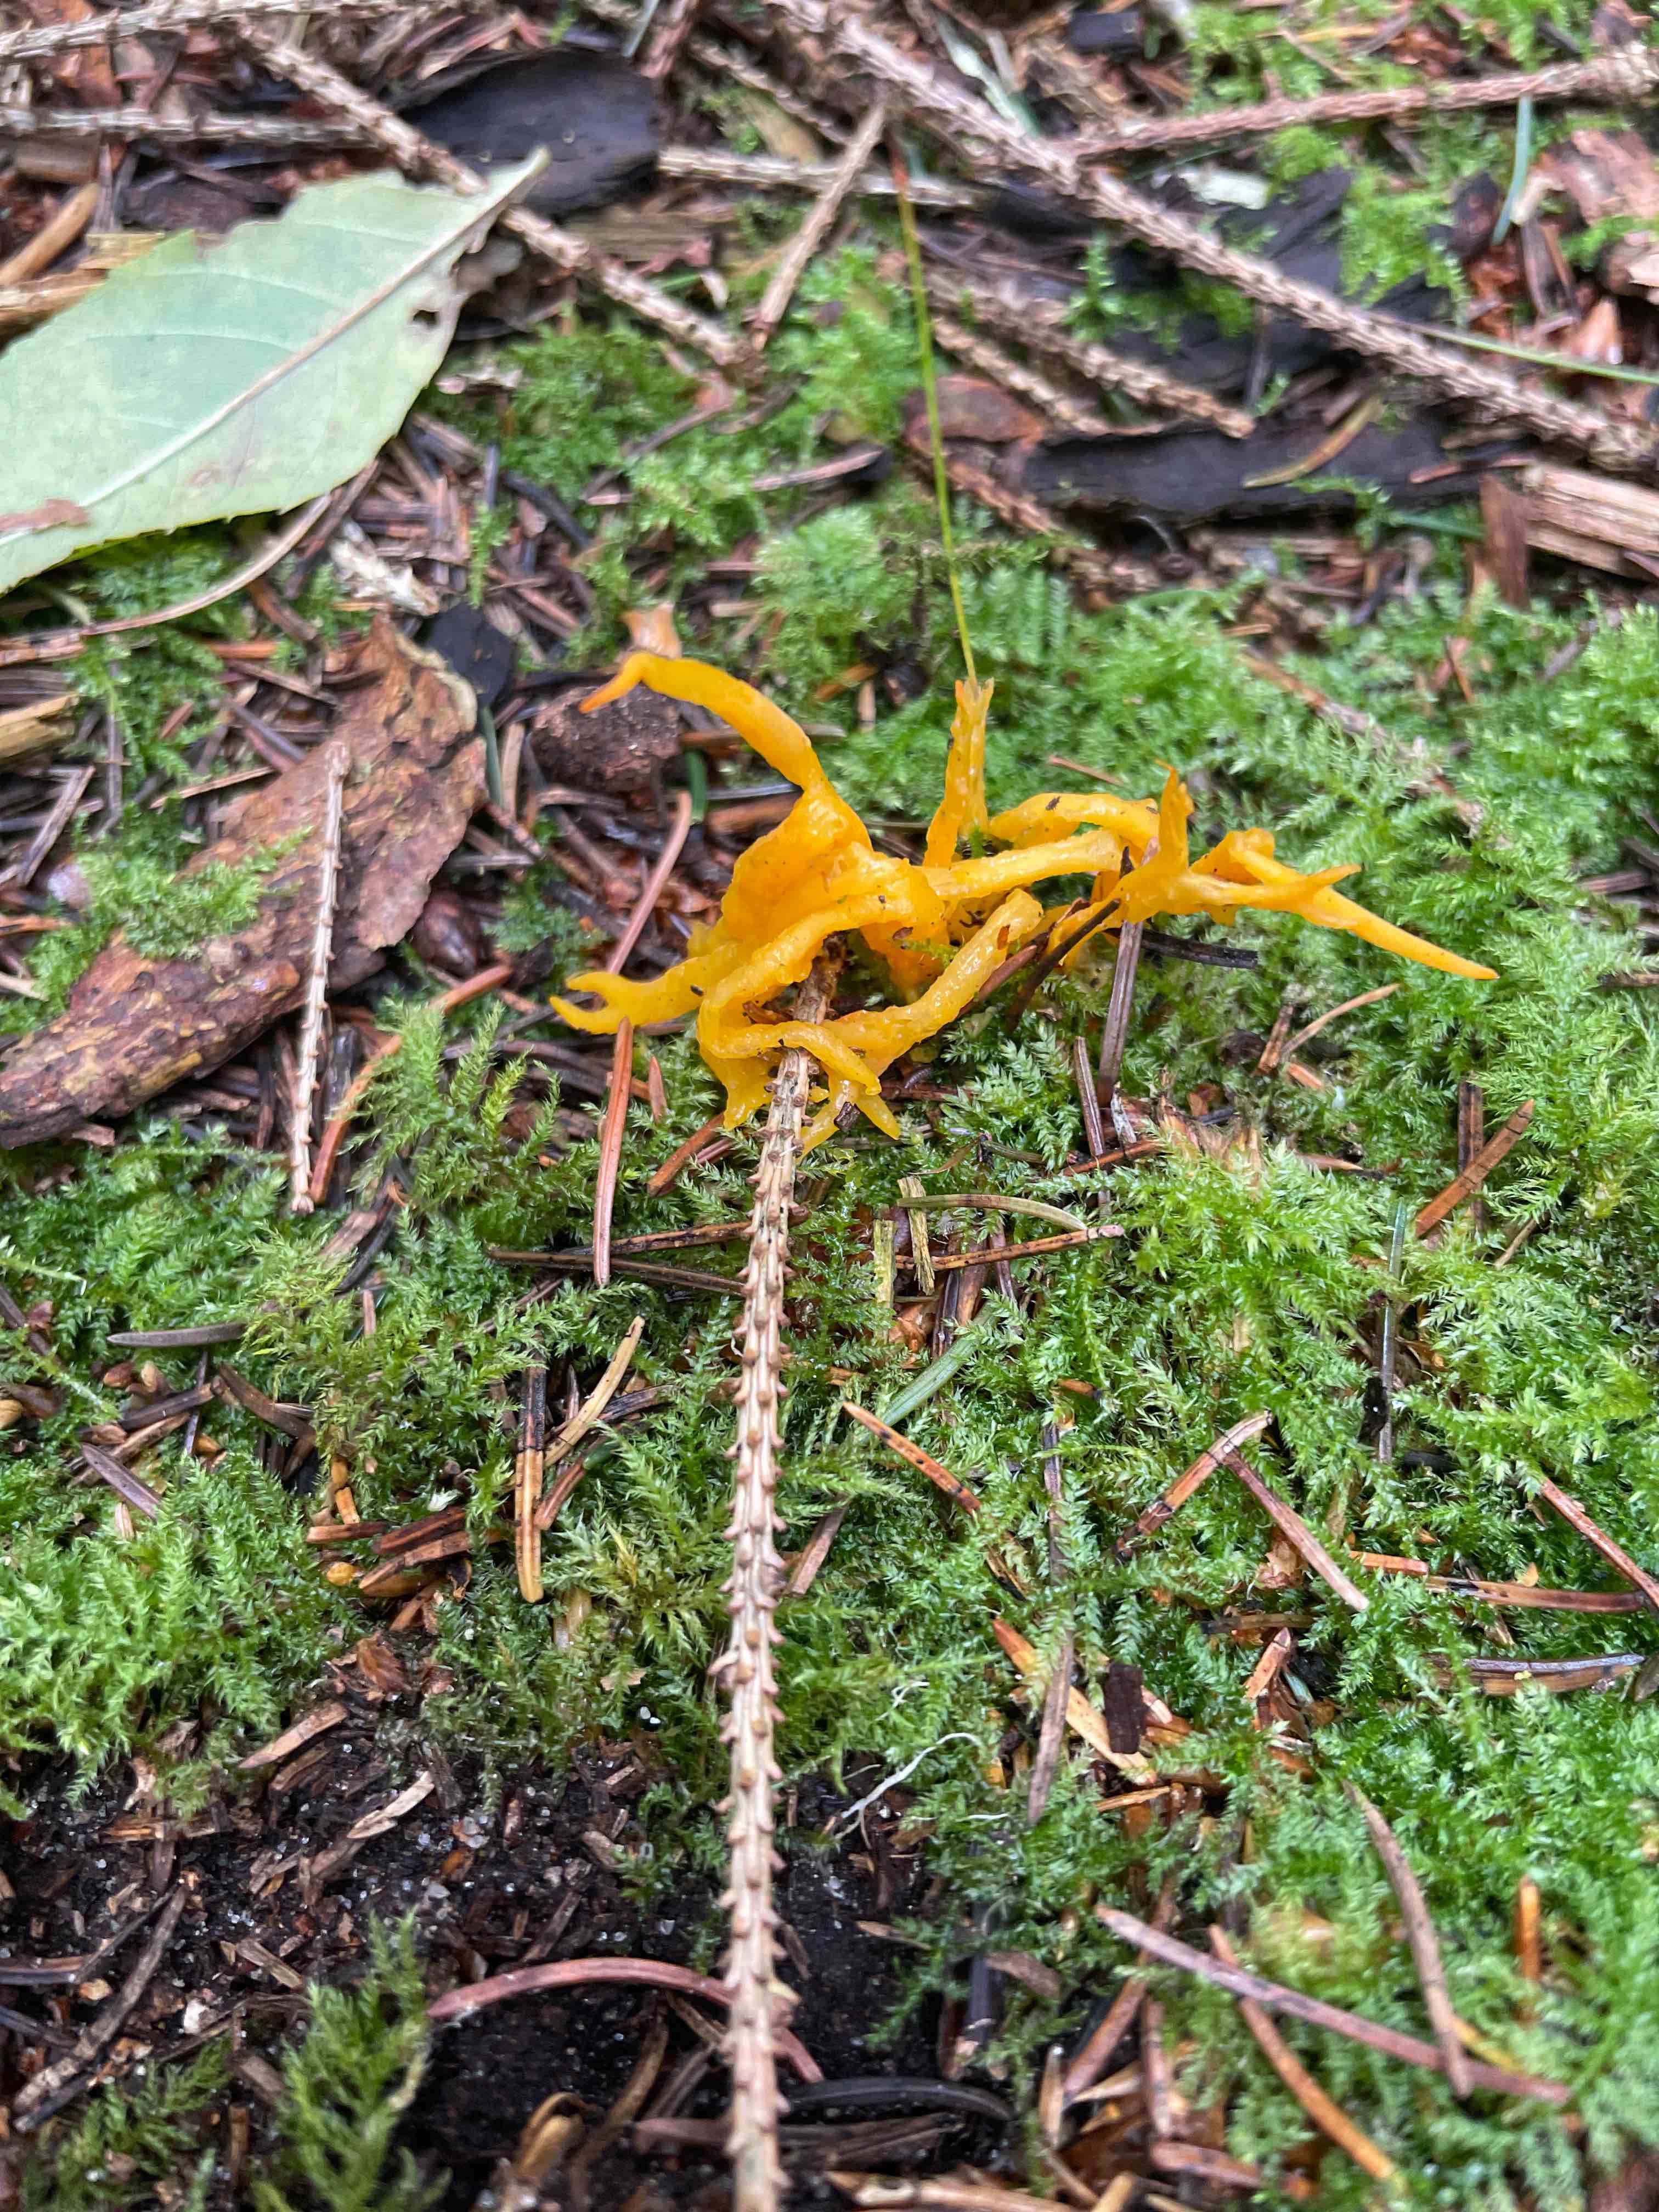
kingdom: Fungi
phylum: Basidiomycota
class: Dacrymycetes
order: Dacrymycetales
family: Dacrymycetaceae
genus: Calocera
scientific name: Calocera viscosa
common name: almindelig guldgaffel
